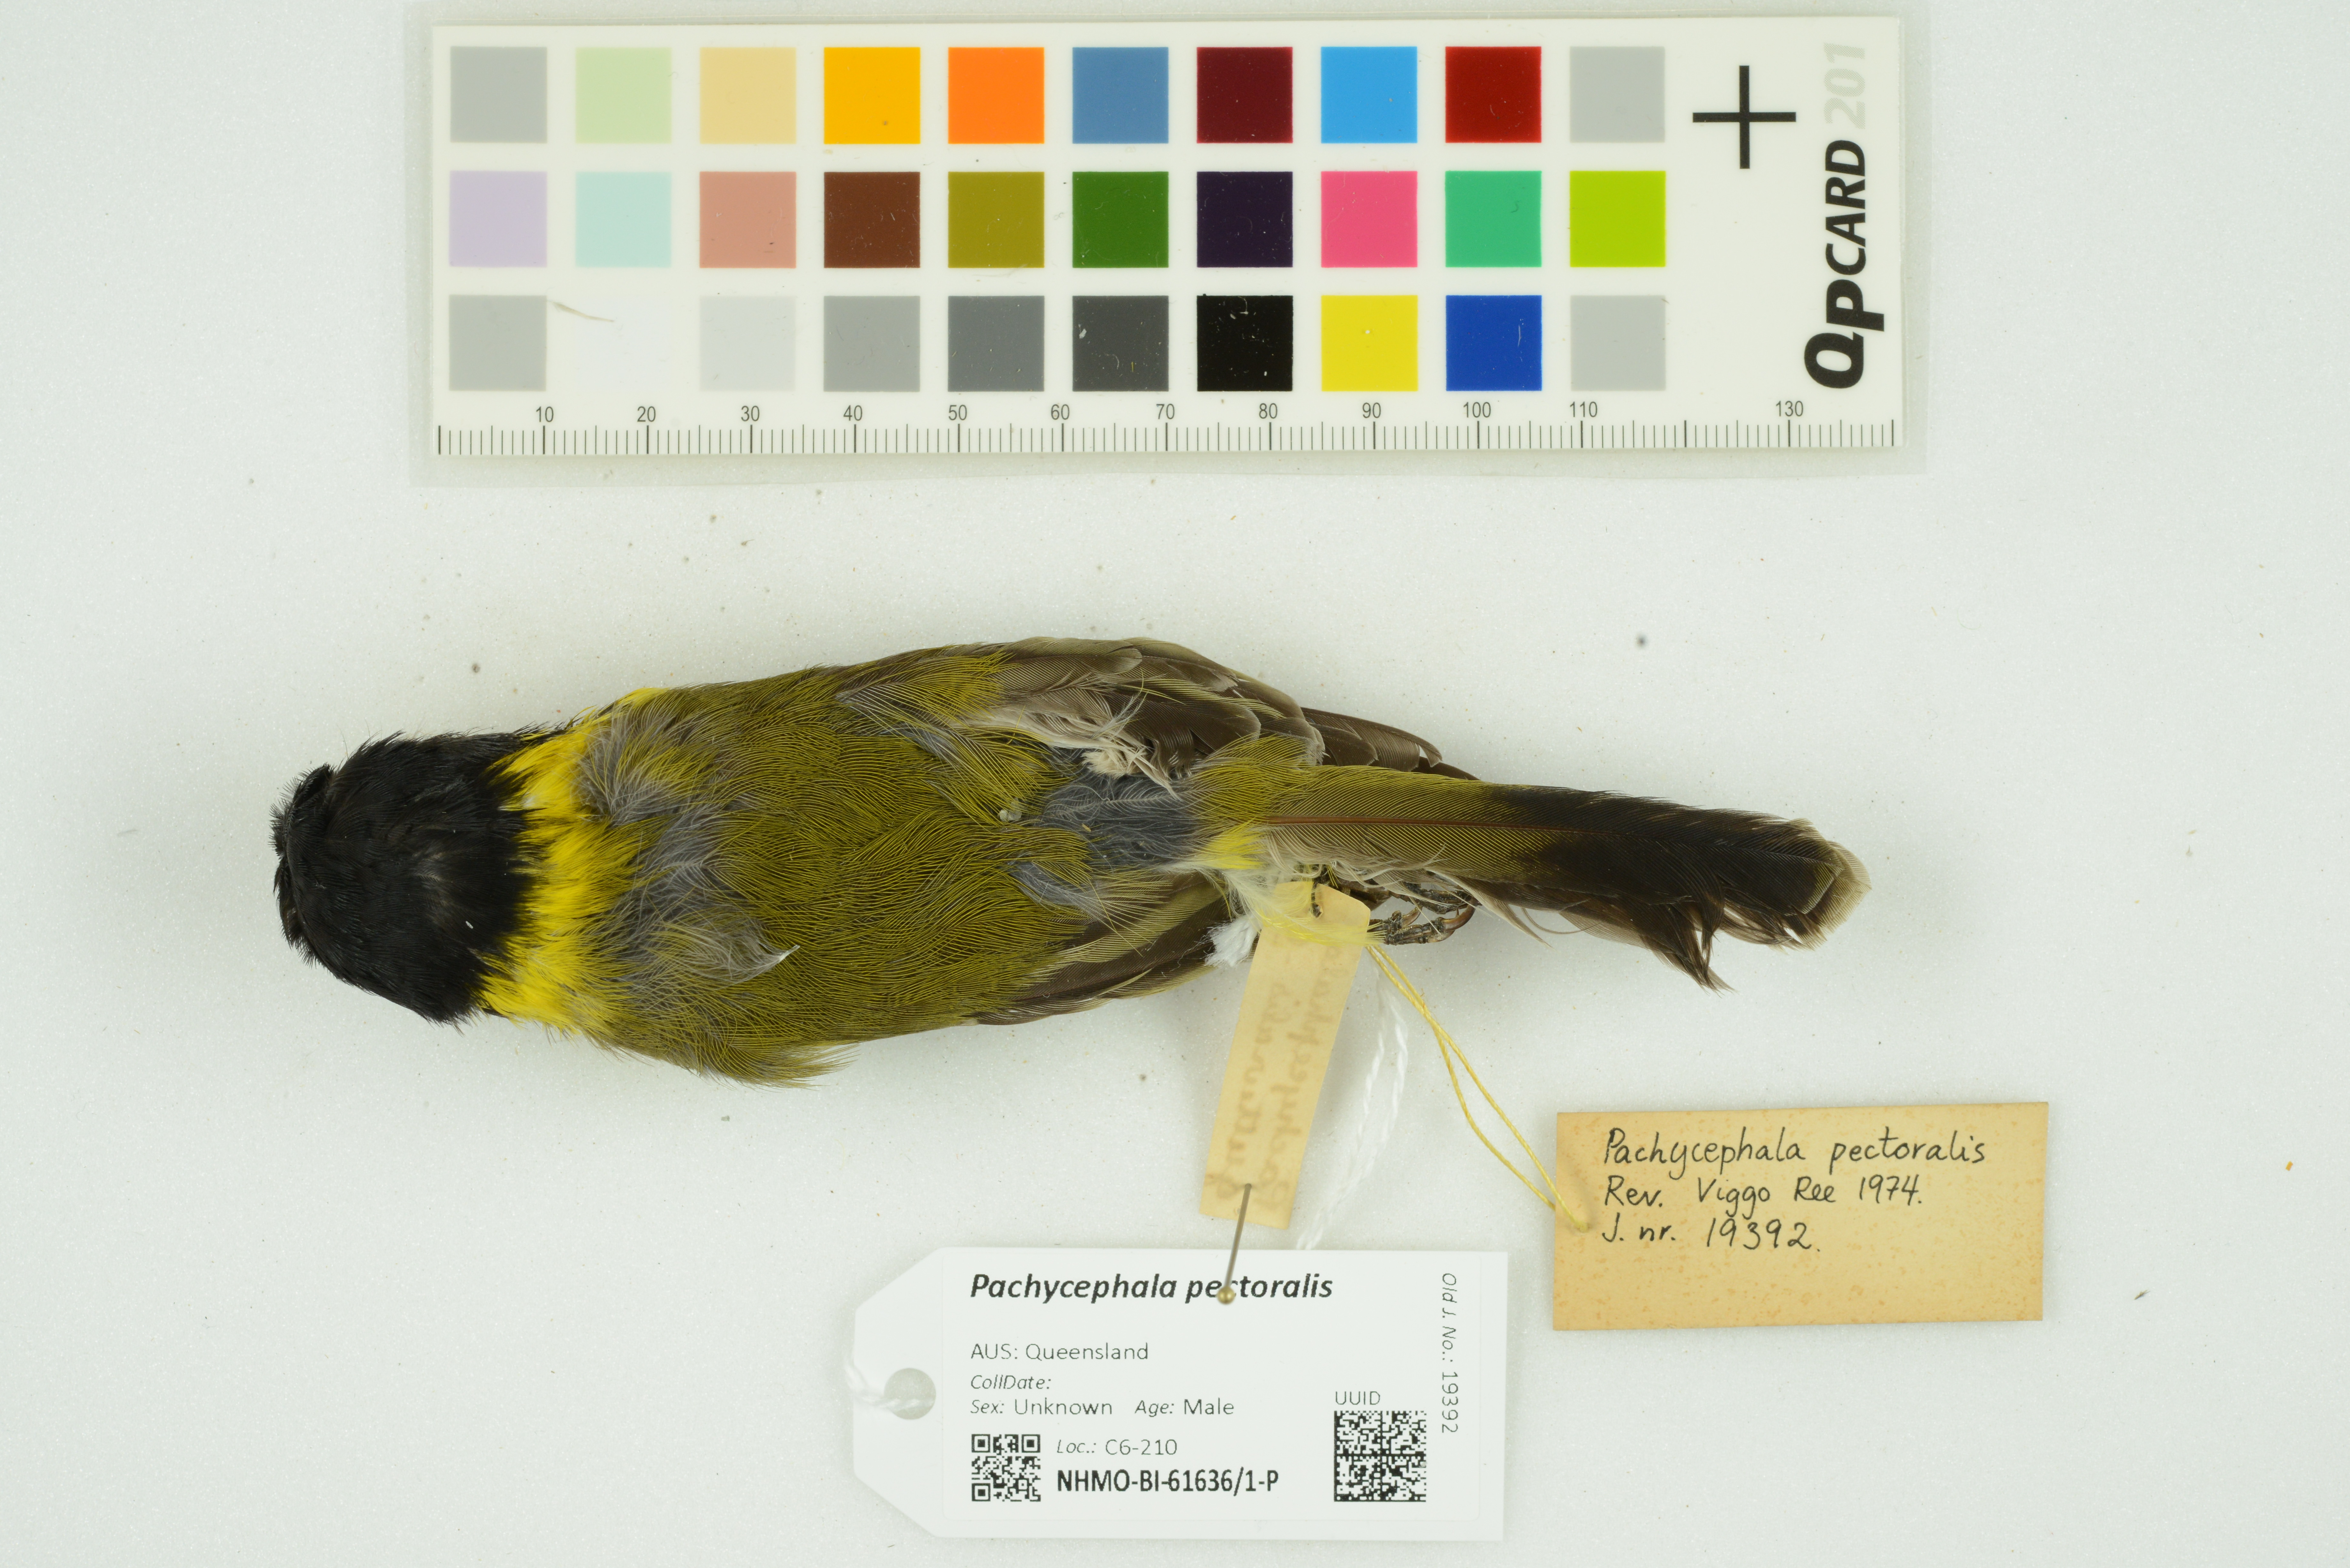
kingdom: Animalia
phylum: Chordata
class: Aves
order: Passeriformes
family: Pachycephalidae
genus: Pachycephala
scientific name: Pachycephala pectoralis
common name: Australian golden whistler
